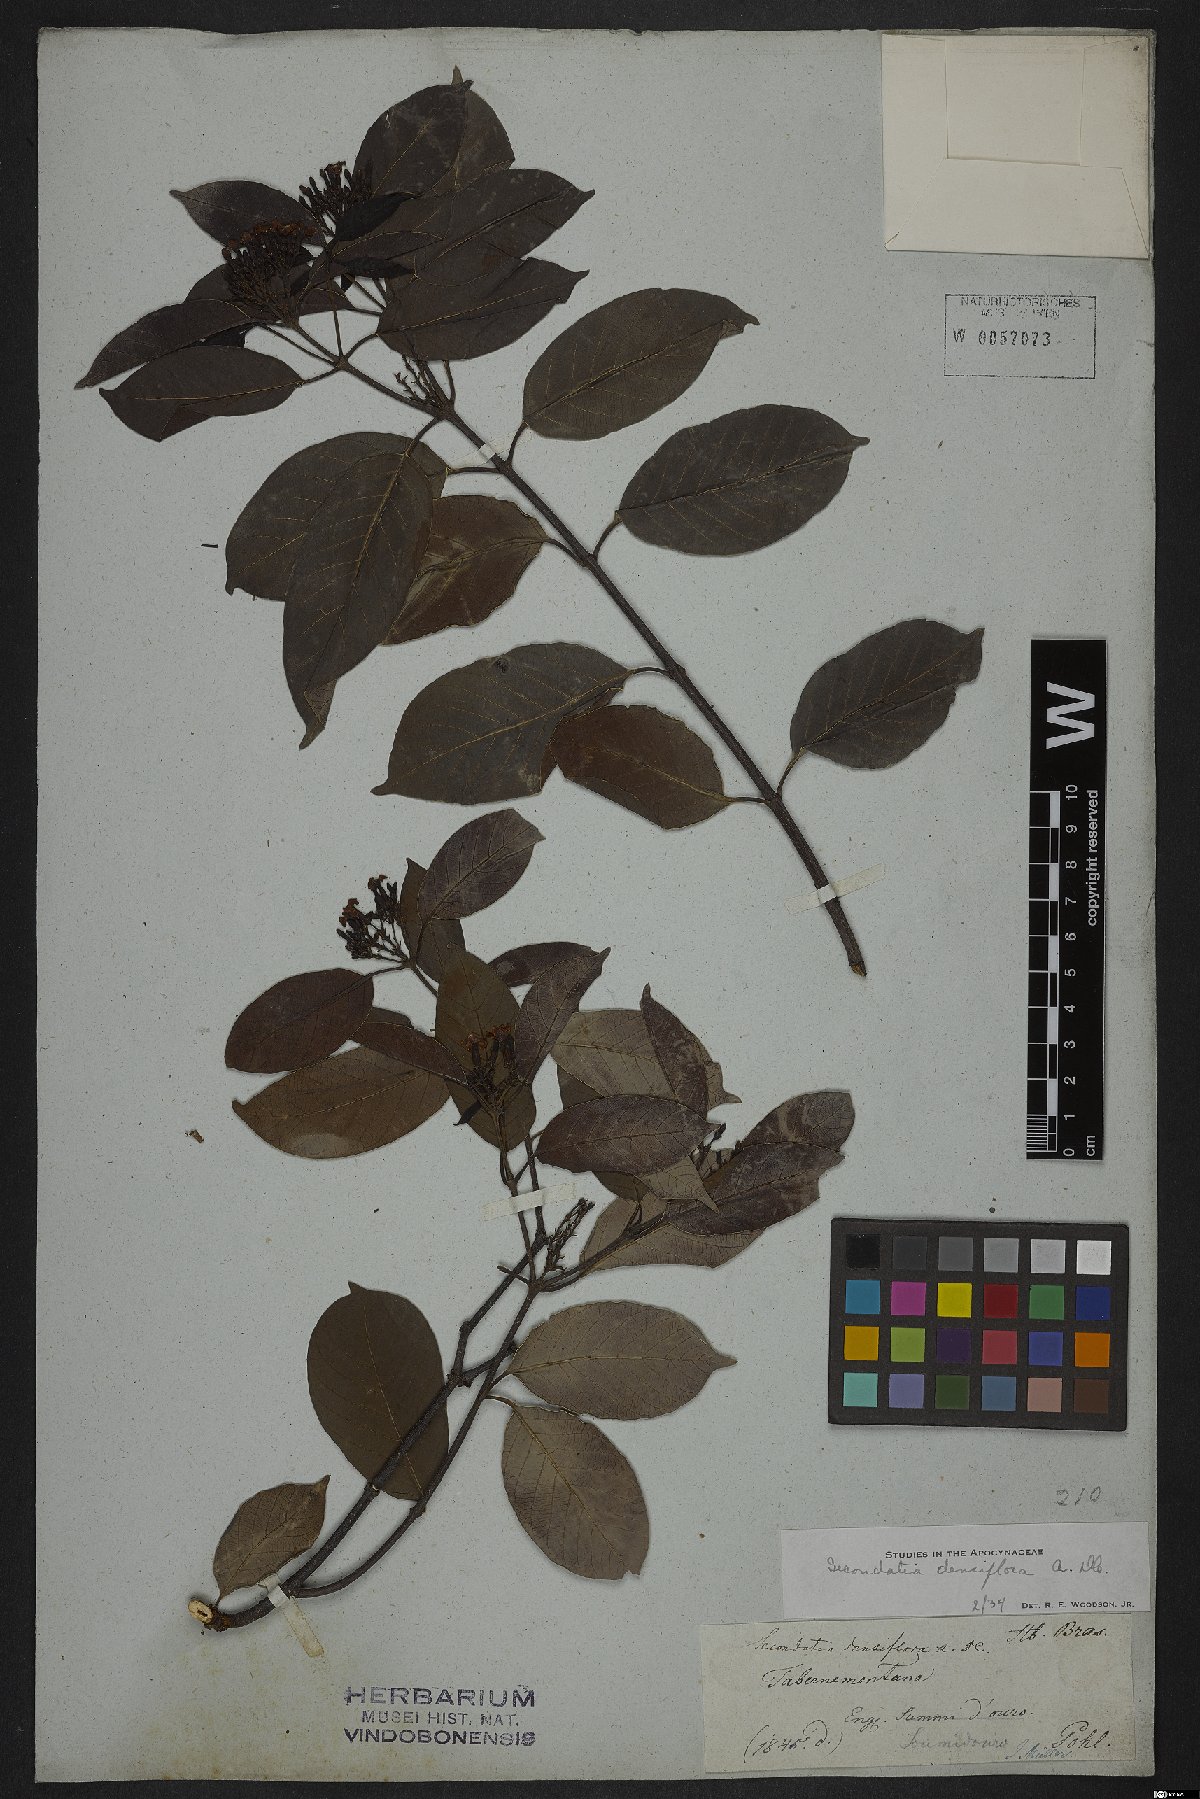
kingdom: Plantae
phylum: Tracheophyta
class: Magnoliopsida
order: Gentianales
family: Apocynaceae
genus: Secondatia
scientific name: Secondatia densiflora
